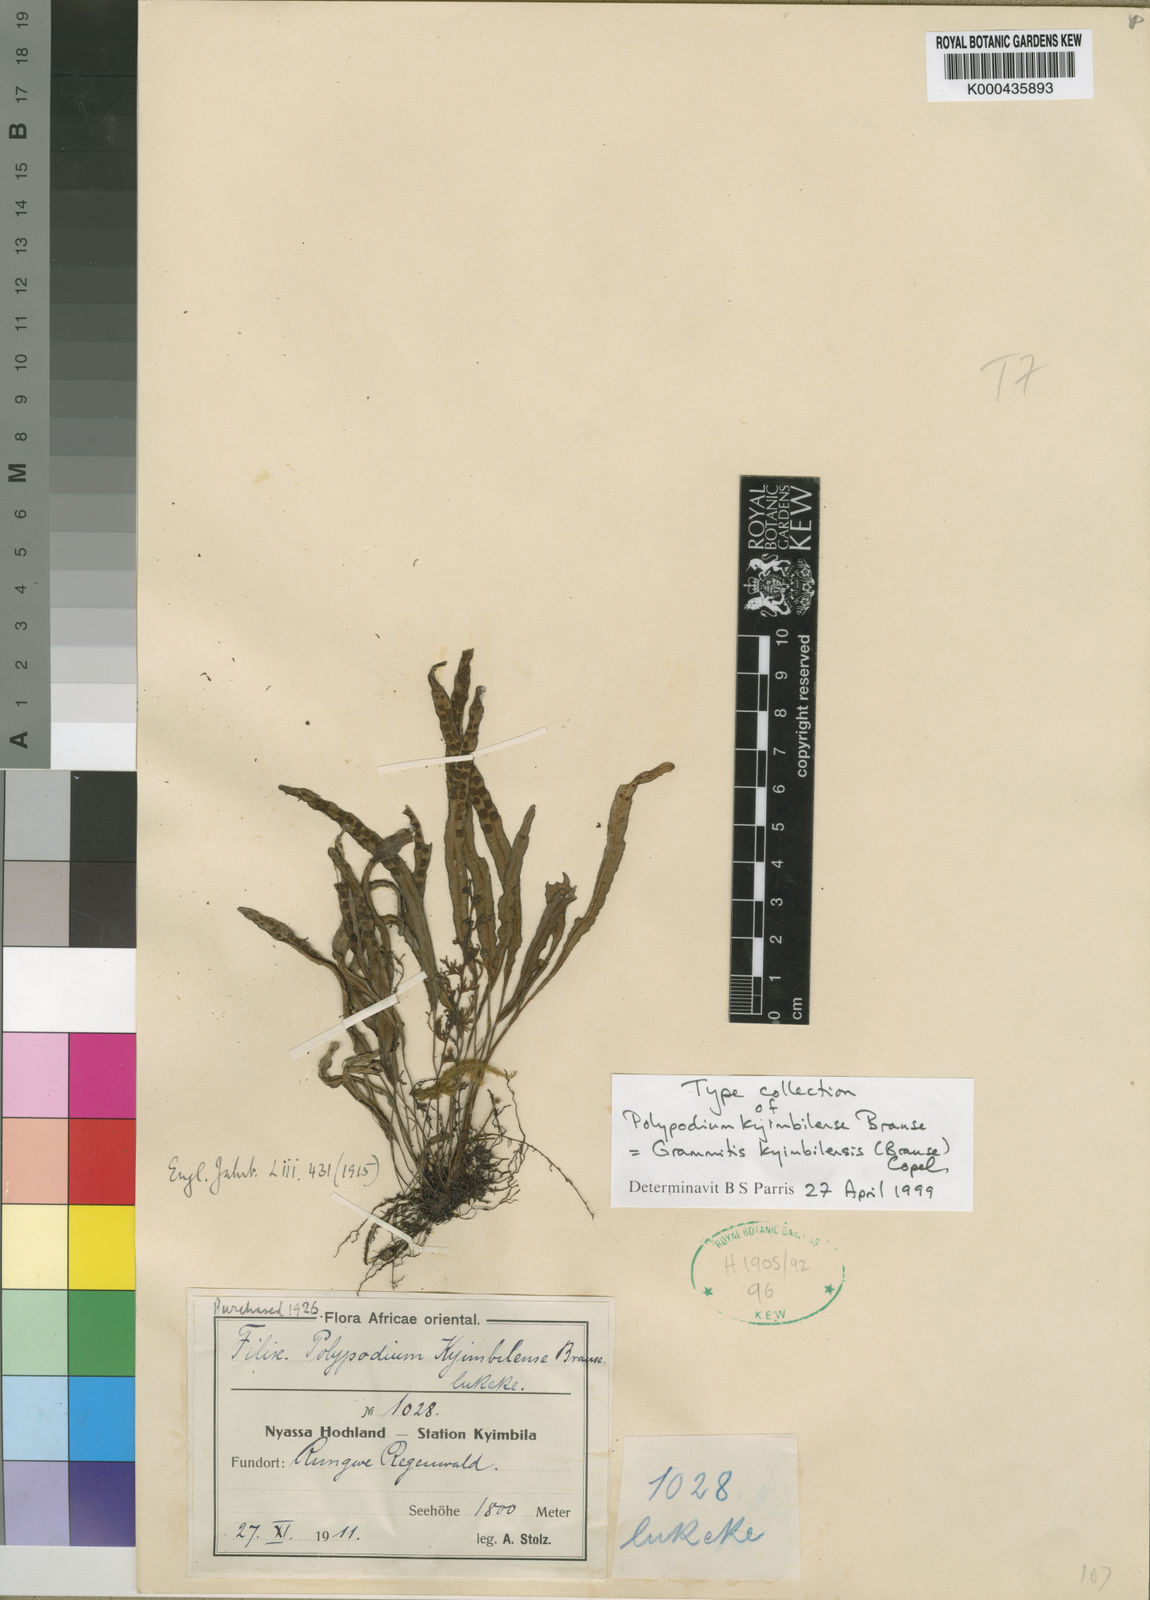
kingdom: Plantae
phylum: Tracheophyta
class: Polypodiopsida
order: Polypodiales
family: Polypodiaceae
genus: Grammitis
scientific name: Grammitis kyimbilensis
